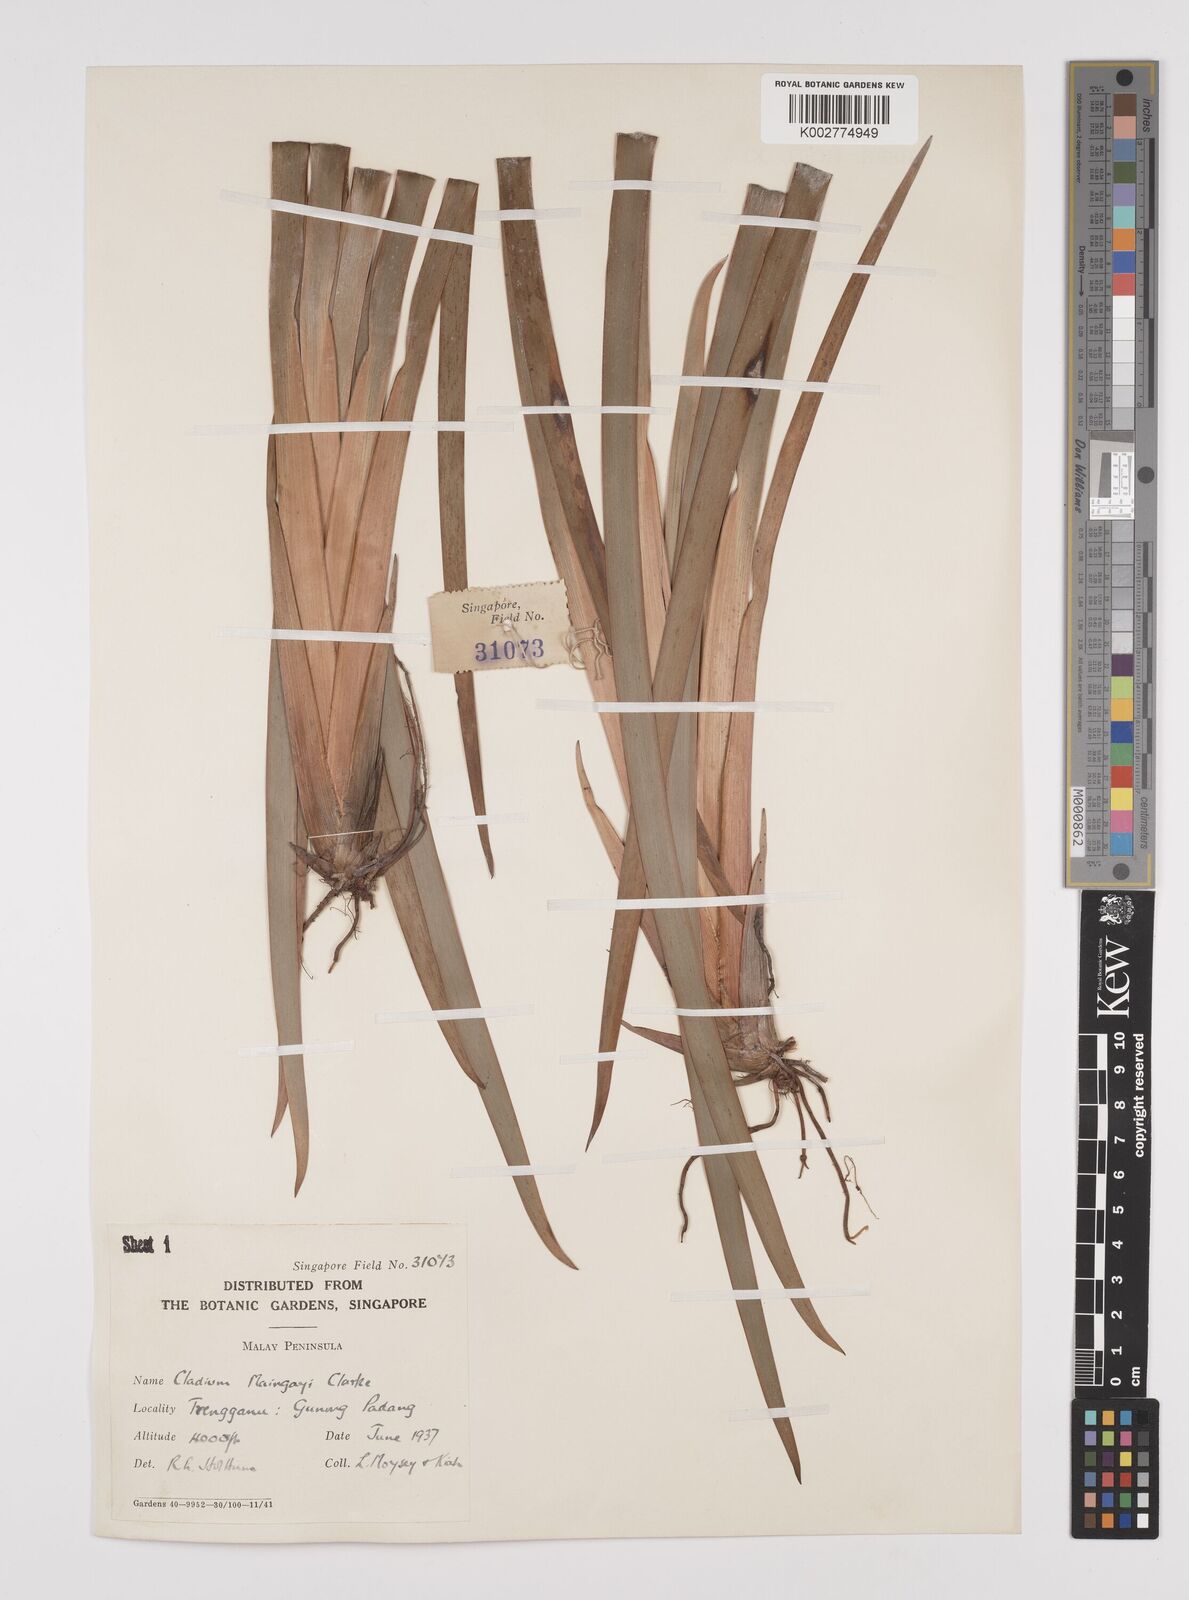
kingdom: Plantae
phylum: Tracheophyta
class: Liliopsida
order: Poales
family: Cyperaceae
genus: Machaerina
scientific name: Machaerina maingayi
